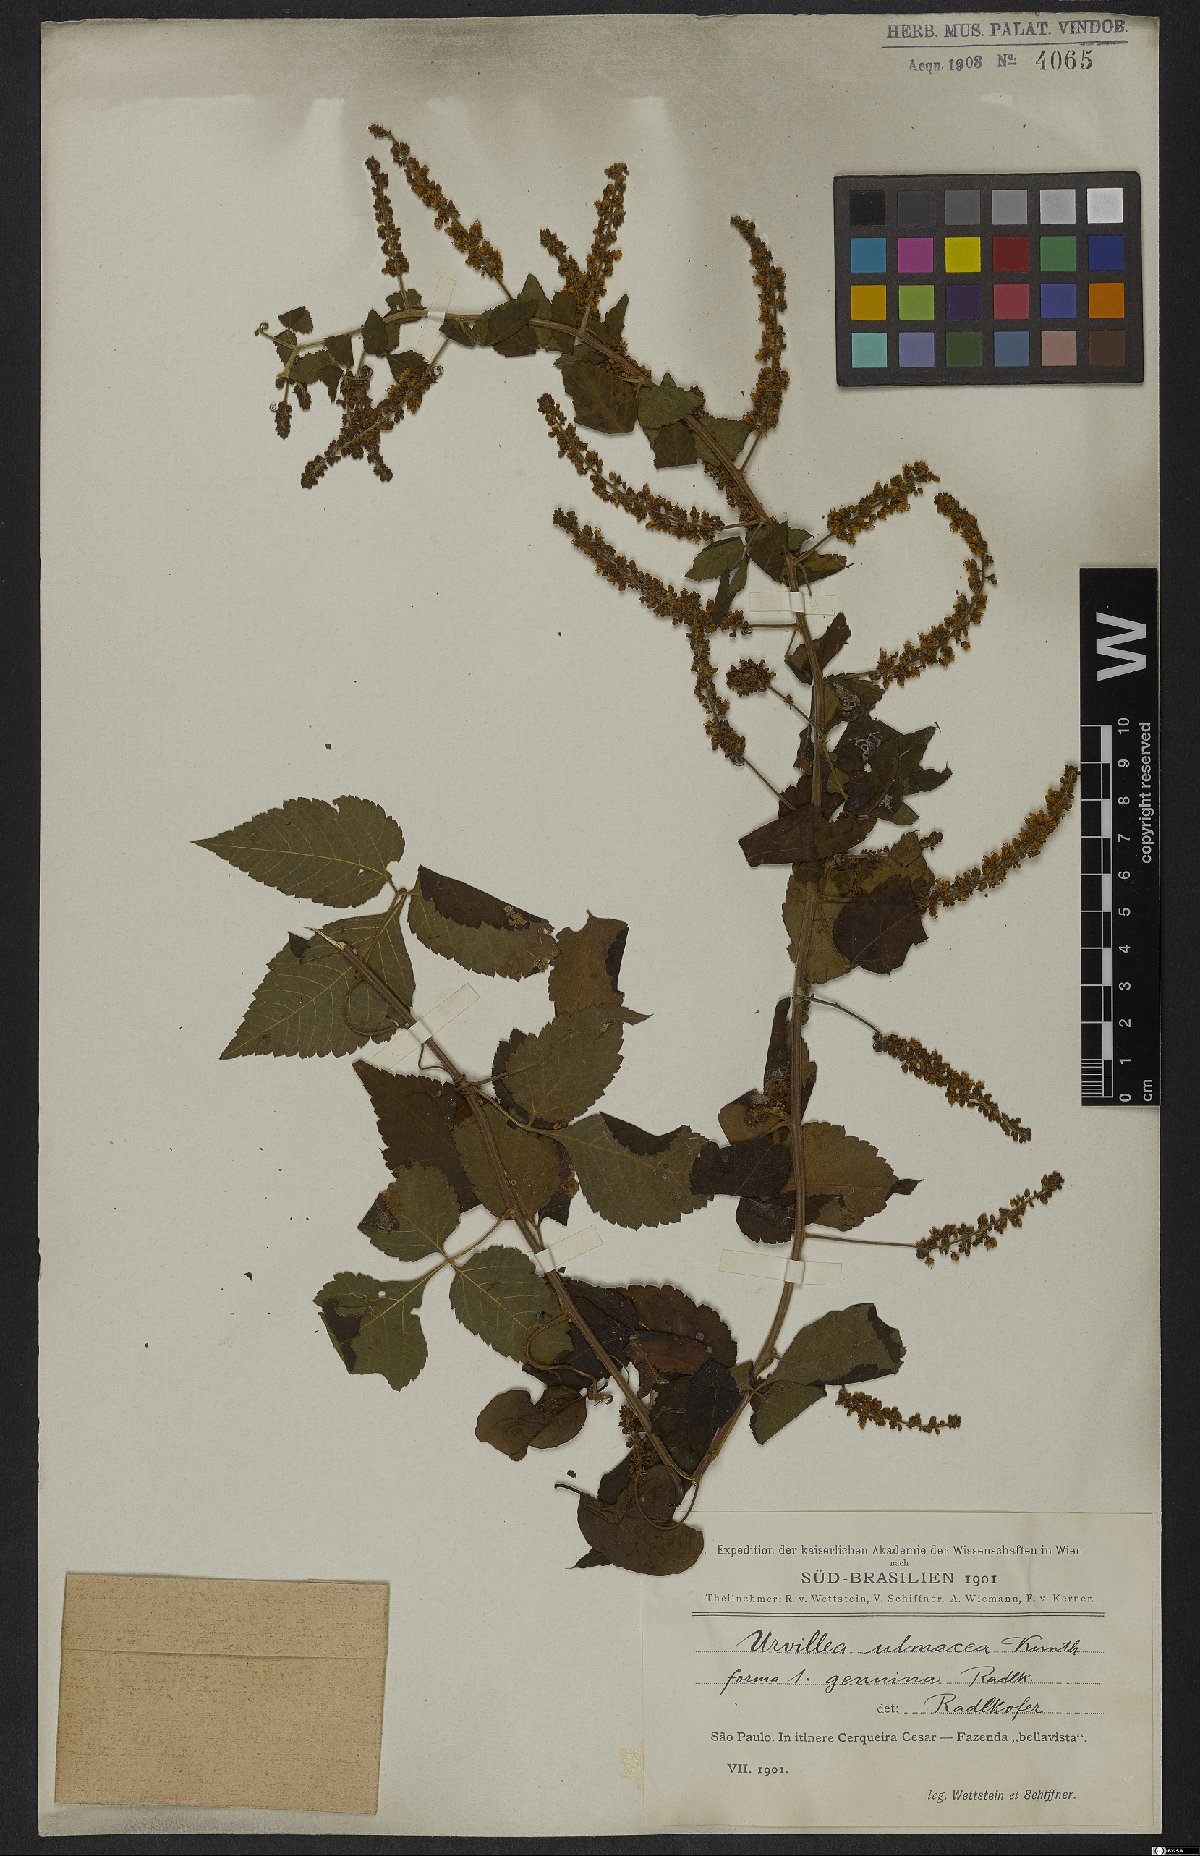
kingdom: Plantae
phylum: Tracheophyta
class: Magnoliopsida
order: Sapindales
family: Sapindaceae
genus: Urvillea
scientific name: Urvillea ulmacea
